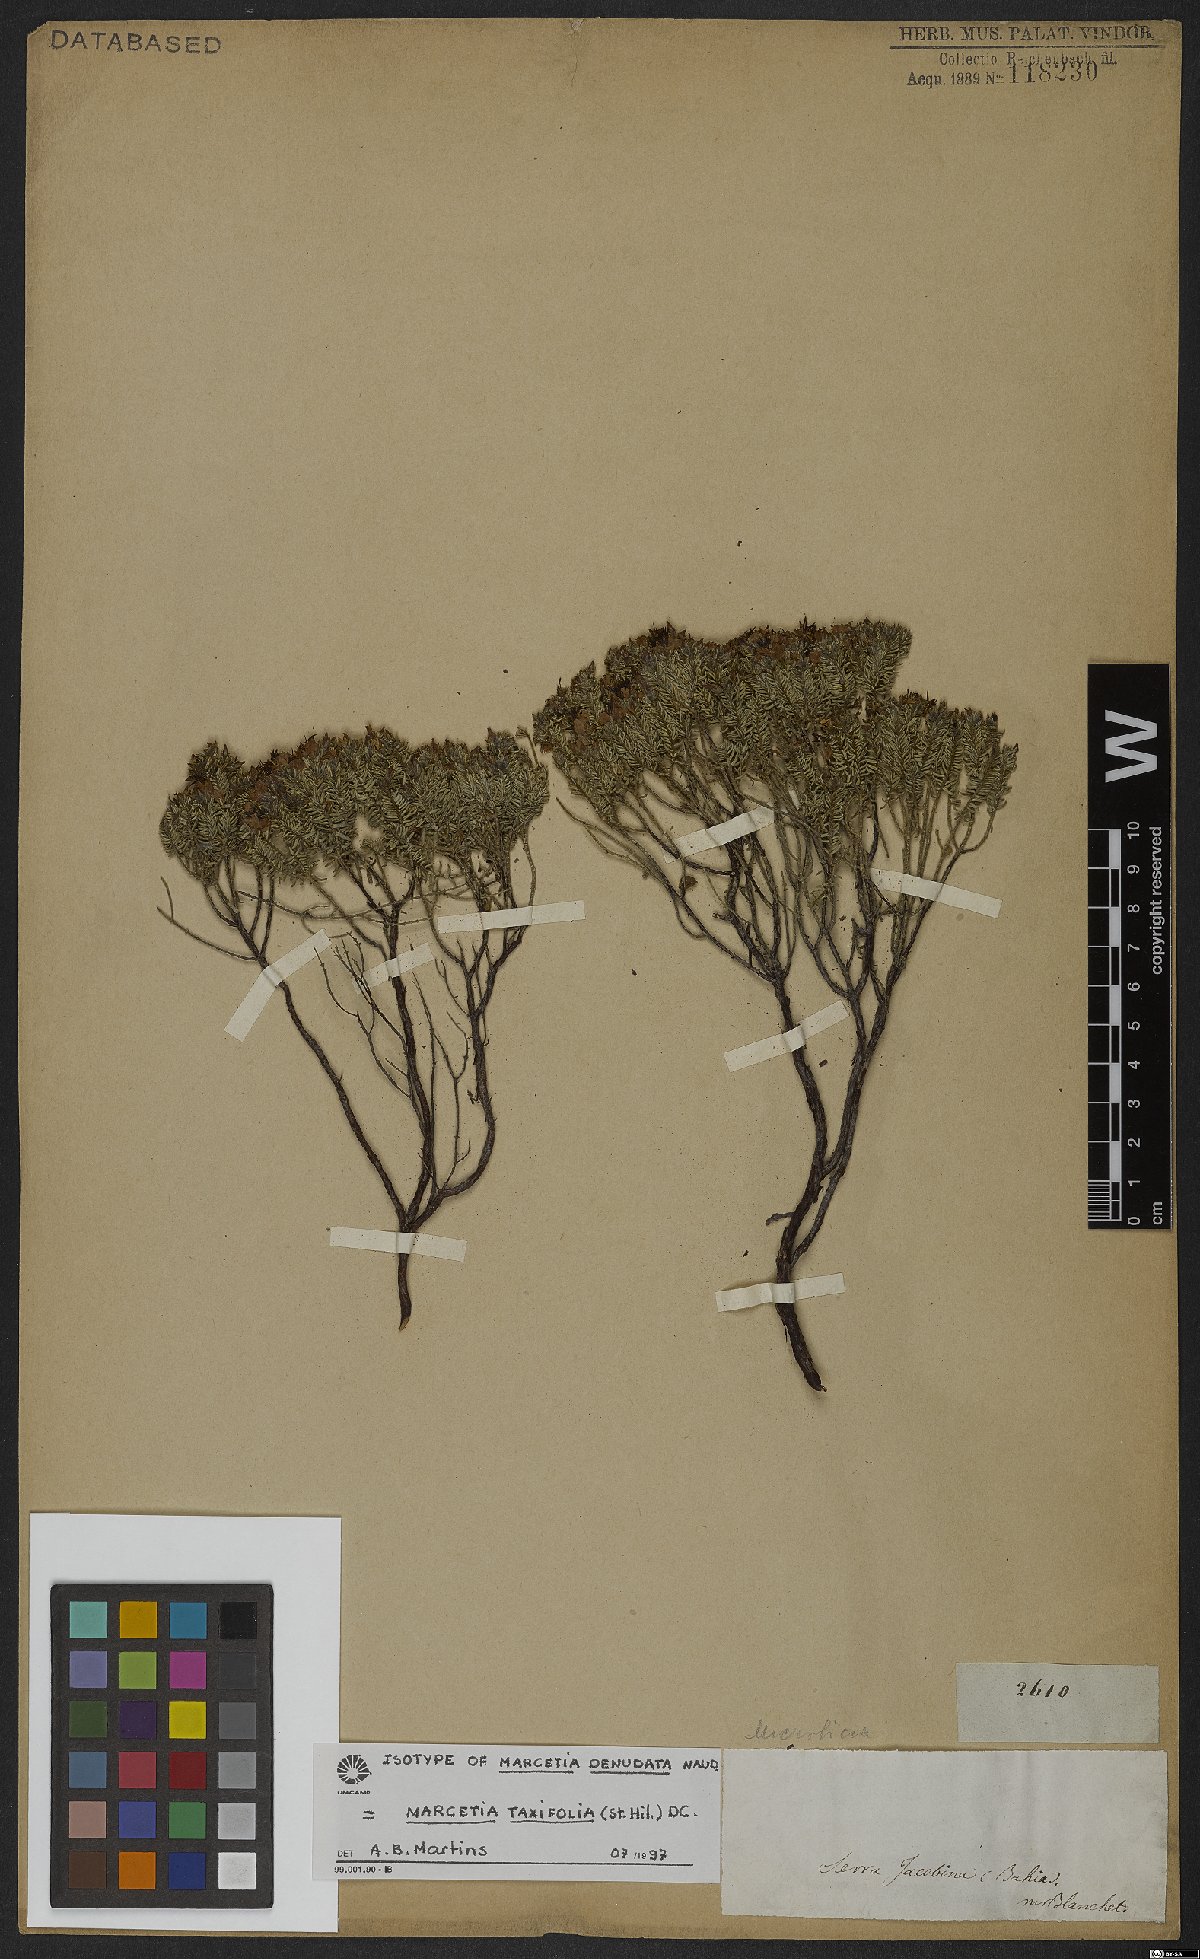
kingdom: Plantae
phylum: Tracheophyta
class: Magnoliopsida
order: Myrtales
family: Melastomataceae
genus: Marcetia
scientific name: Marcetia taxifolia
